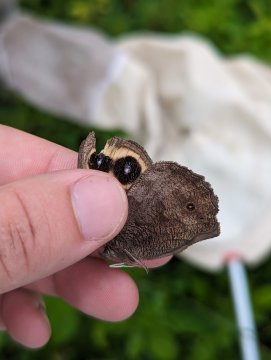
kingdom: Animalia
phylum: Arthropoda
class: Insecta
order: Lepidoptera
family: Nymphalidae
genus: Cercyonis
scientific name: Cercyonis pegala
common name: Common Wood-Nymph
